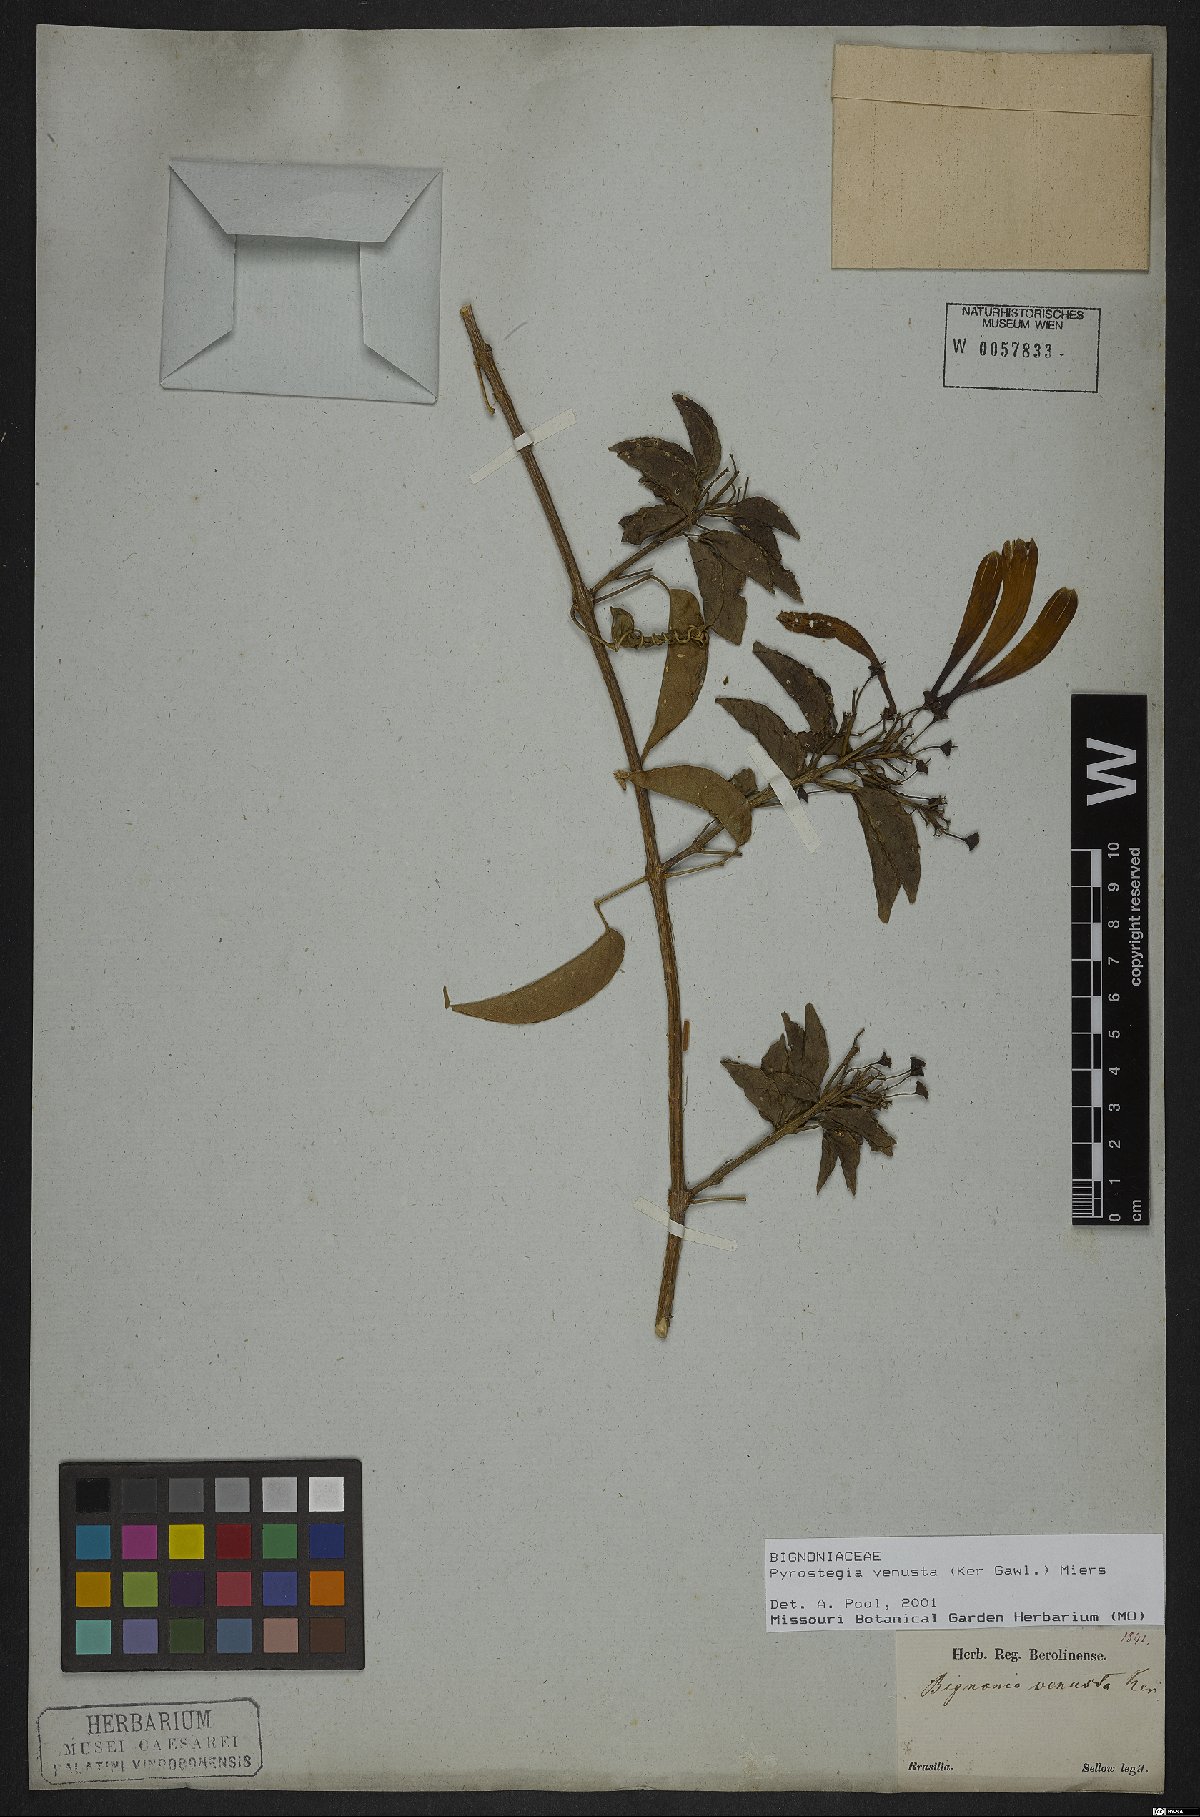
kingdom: Plantae
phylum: Tracheophyta
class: Magnoliopsida
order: Lamiales
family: Bignoniaceae
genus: Pyrostegia
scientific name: Pyrostegia venusta
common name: Flamevine
